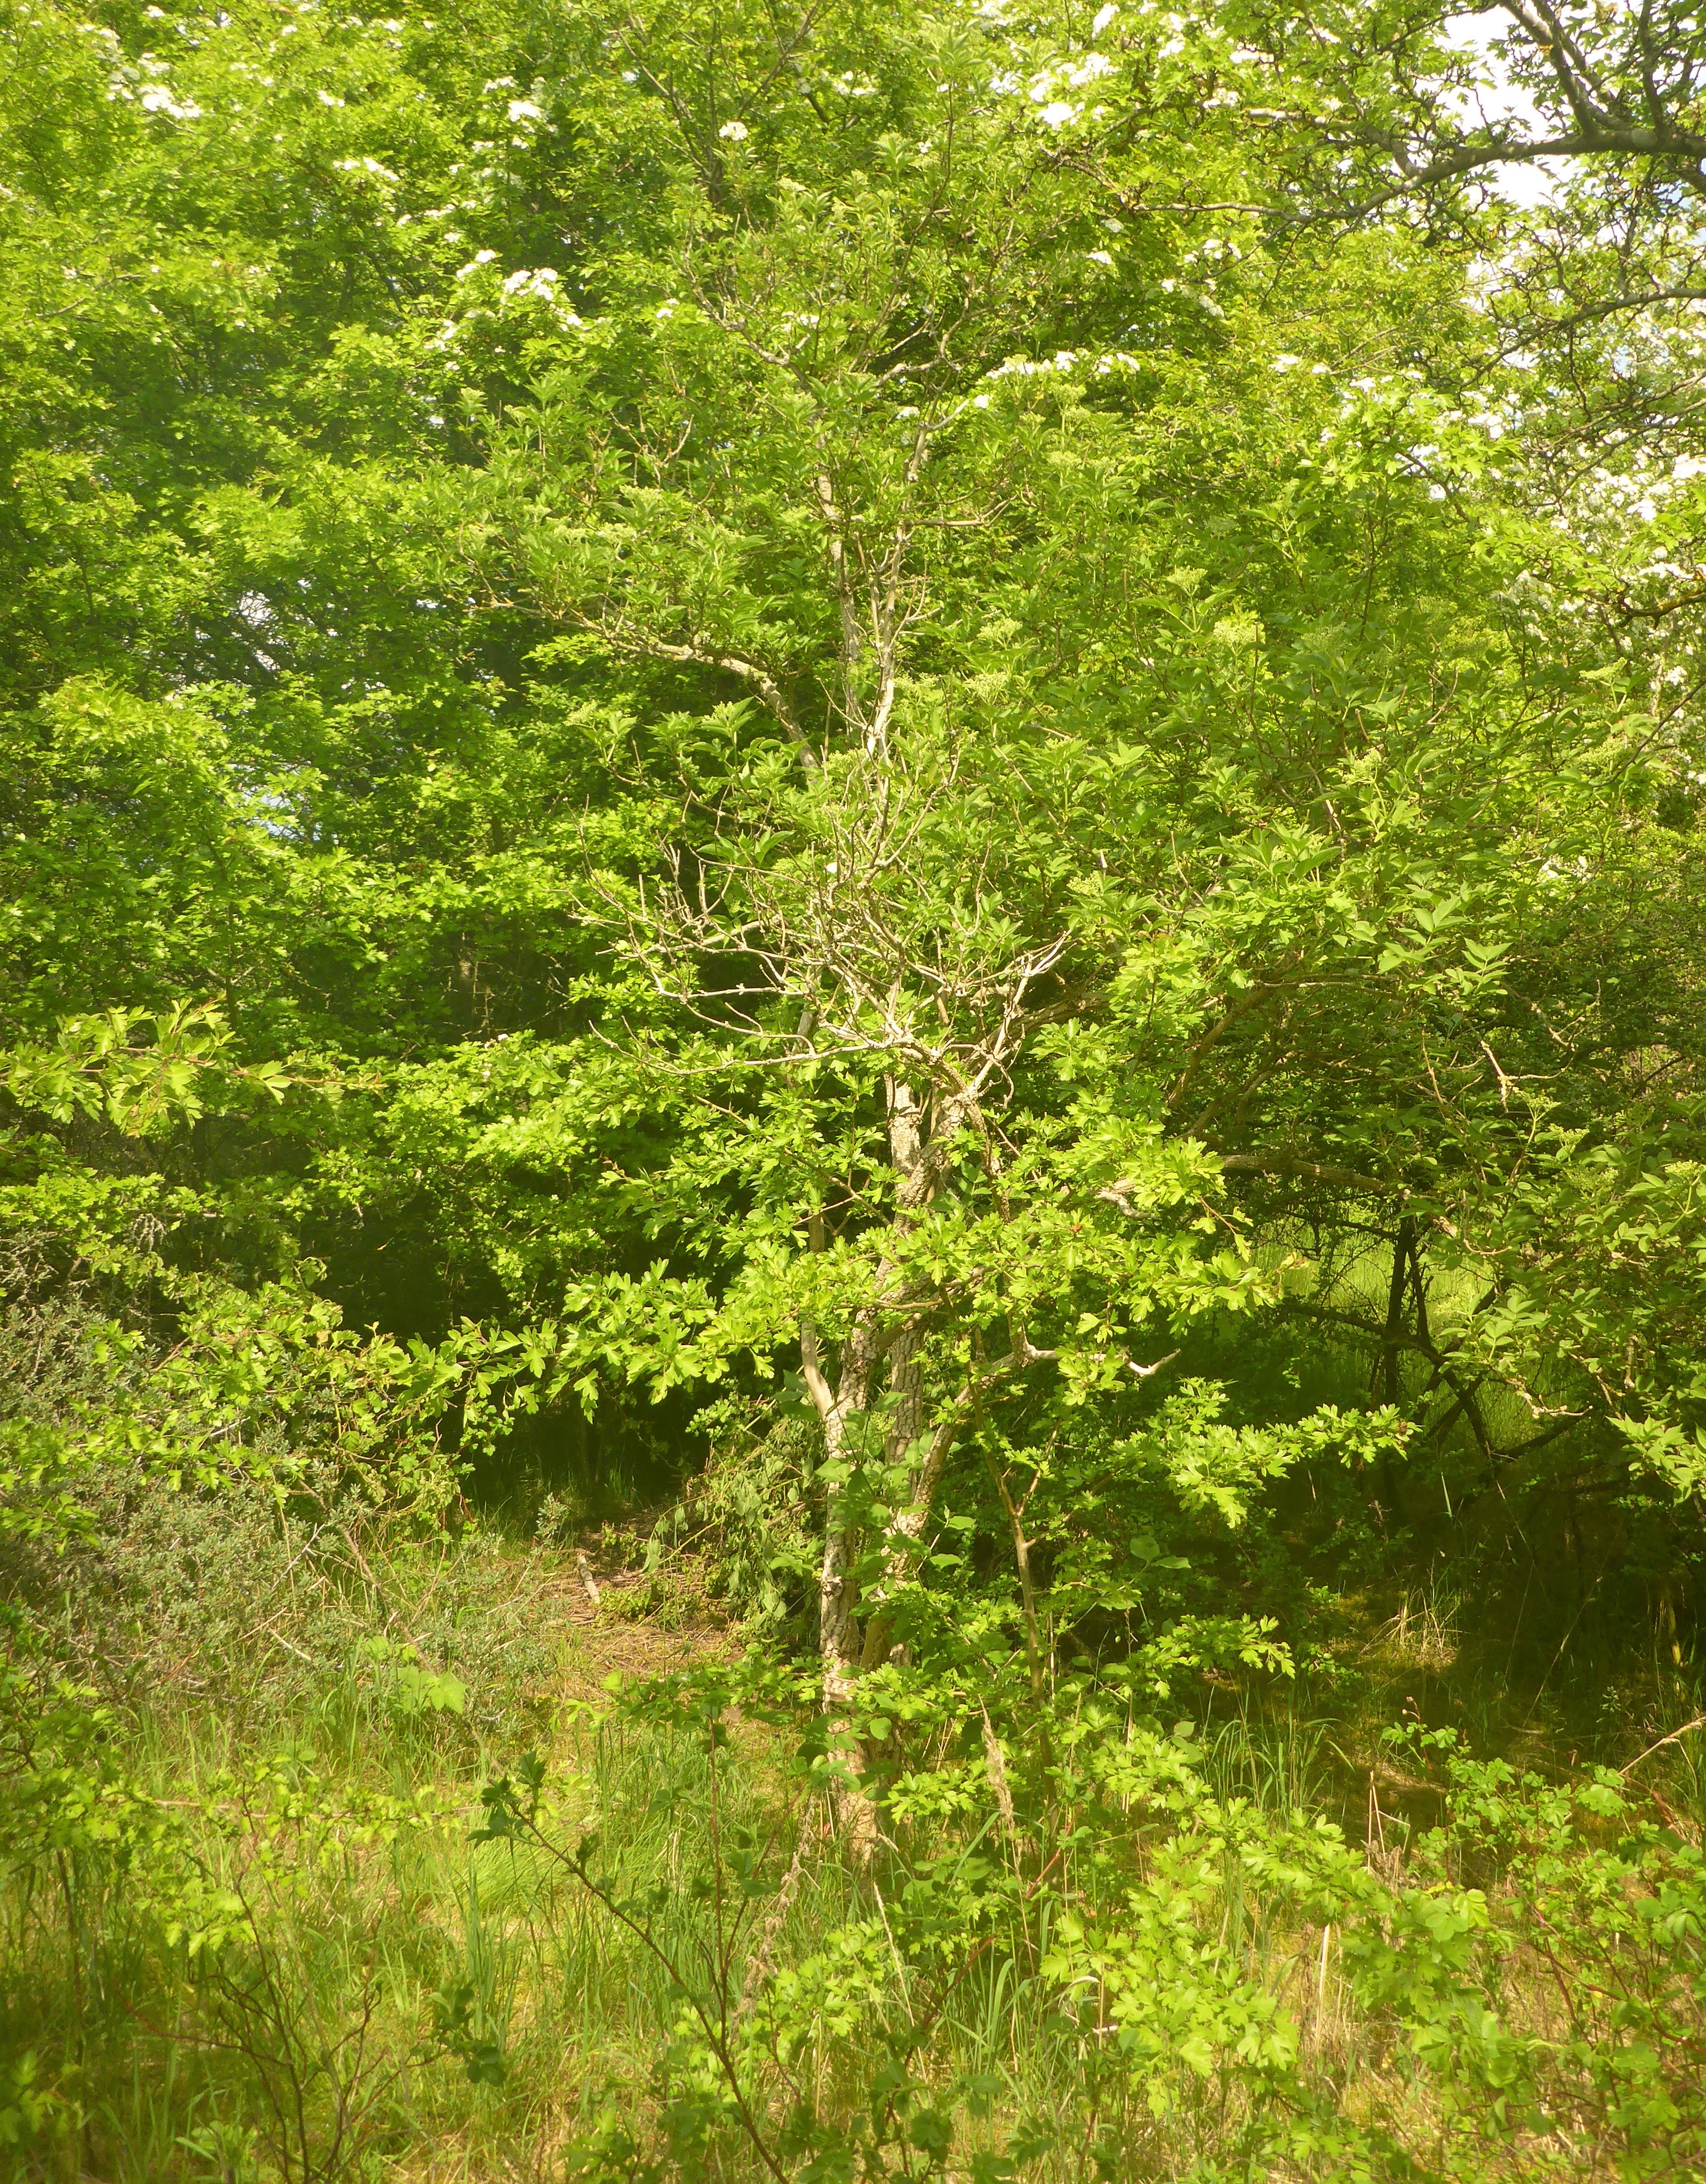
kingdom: Plantae
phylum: Tracheophyta
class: Magnoliopsida
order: Dipsacales
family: Viburnaceae
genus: Sambucus
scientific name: Sambucus nigra
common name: Almindelig hyld
